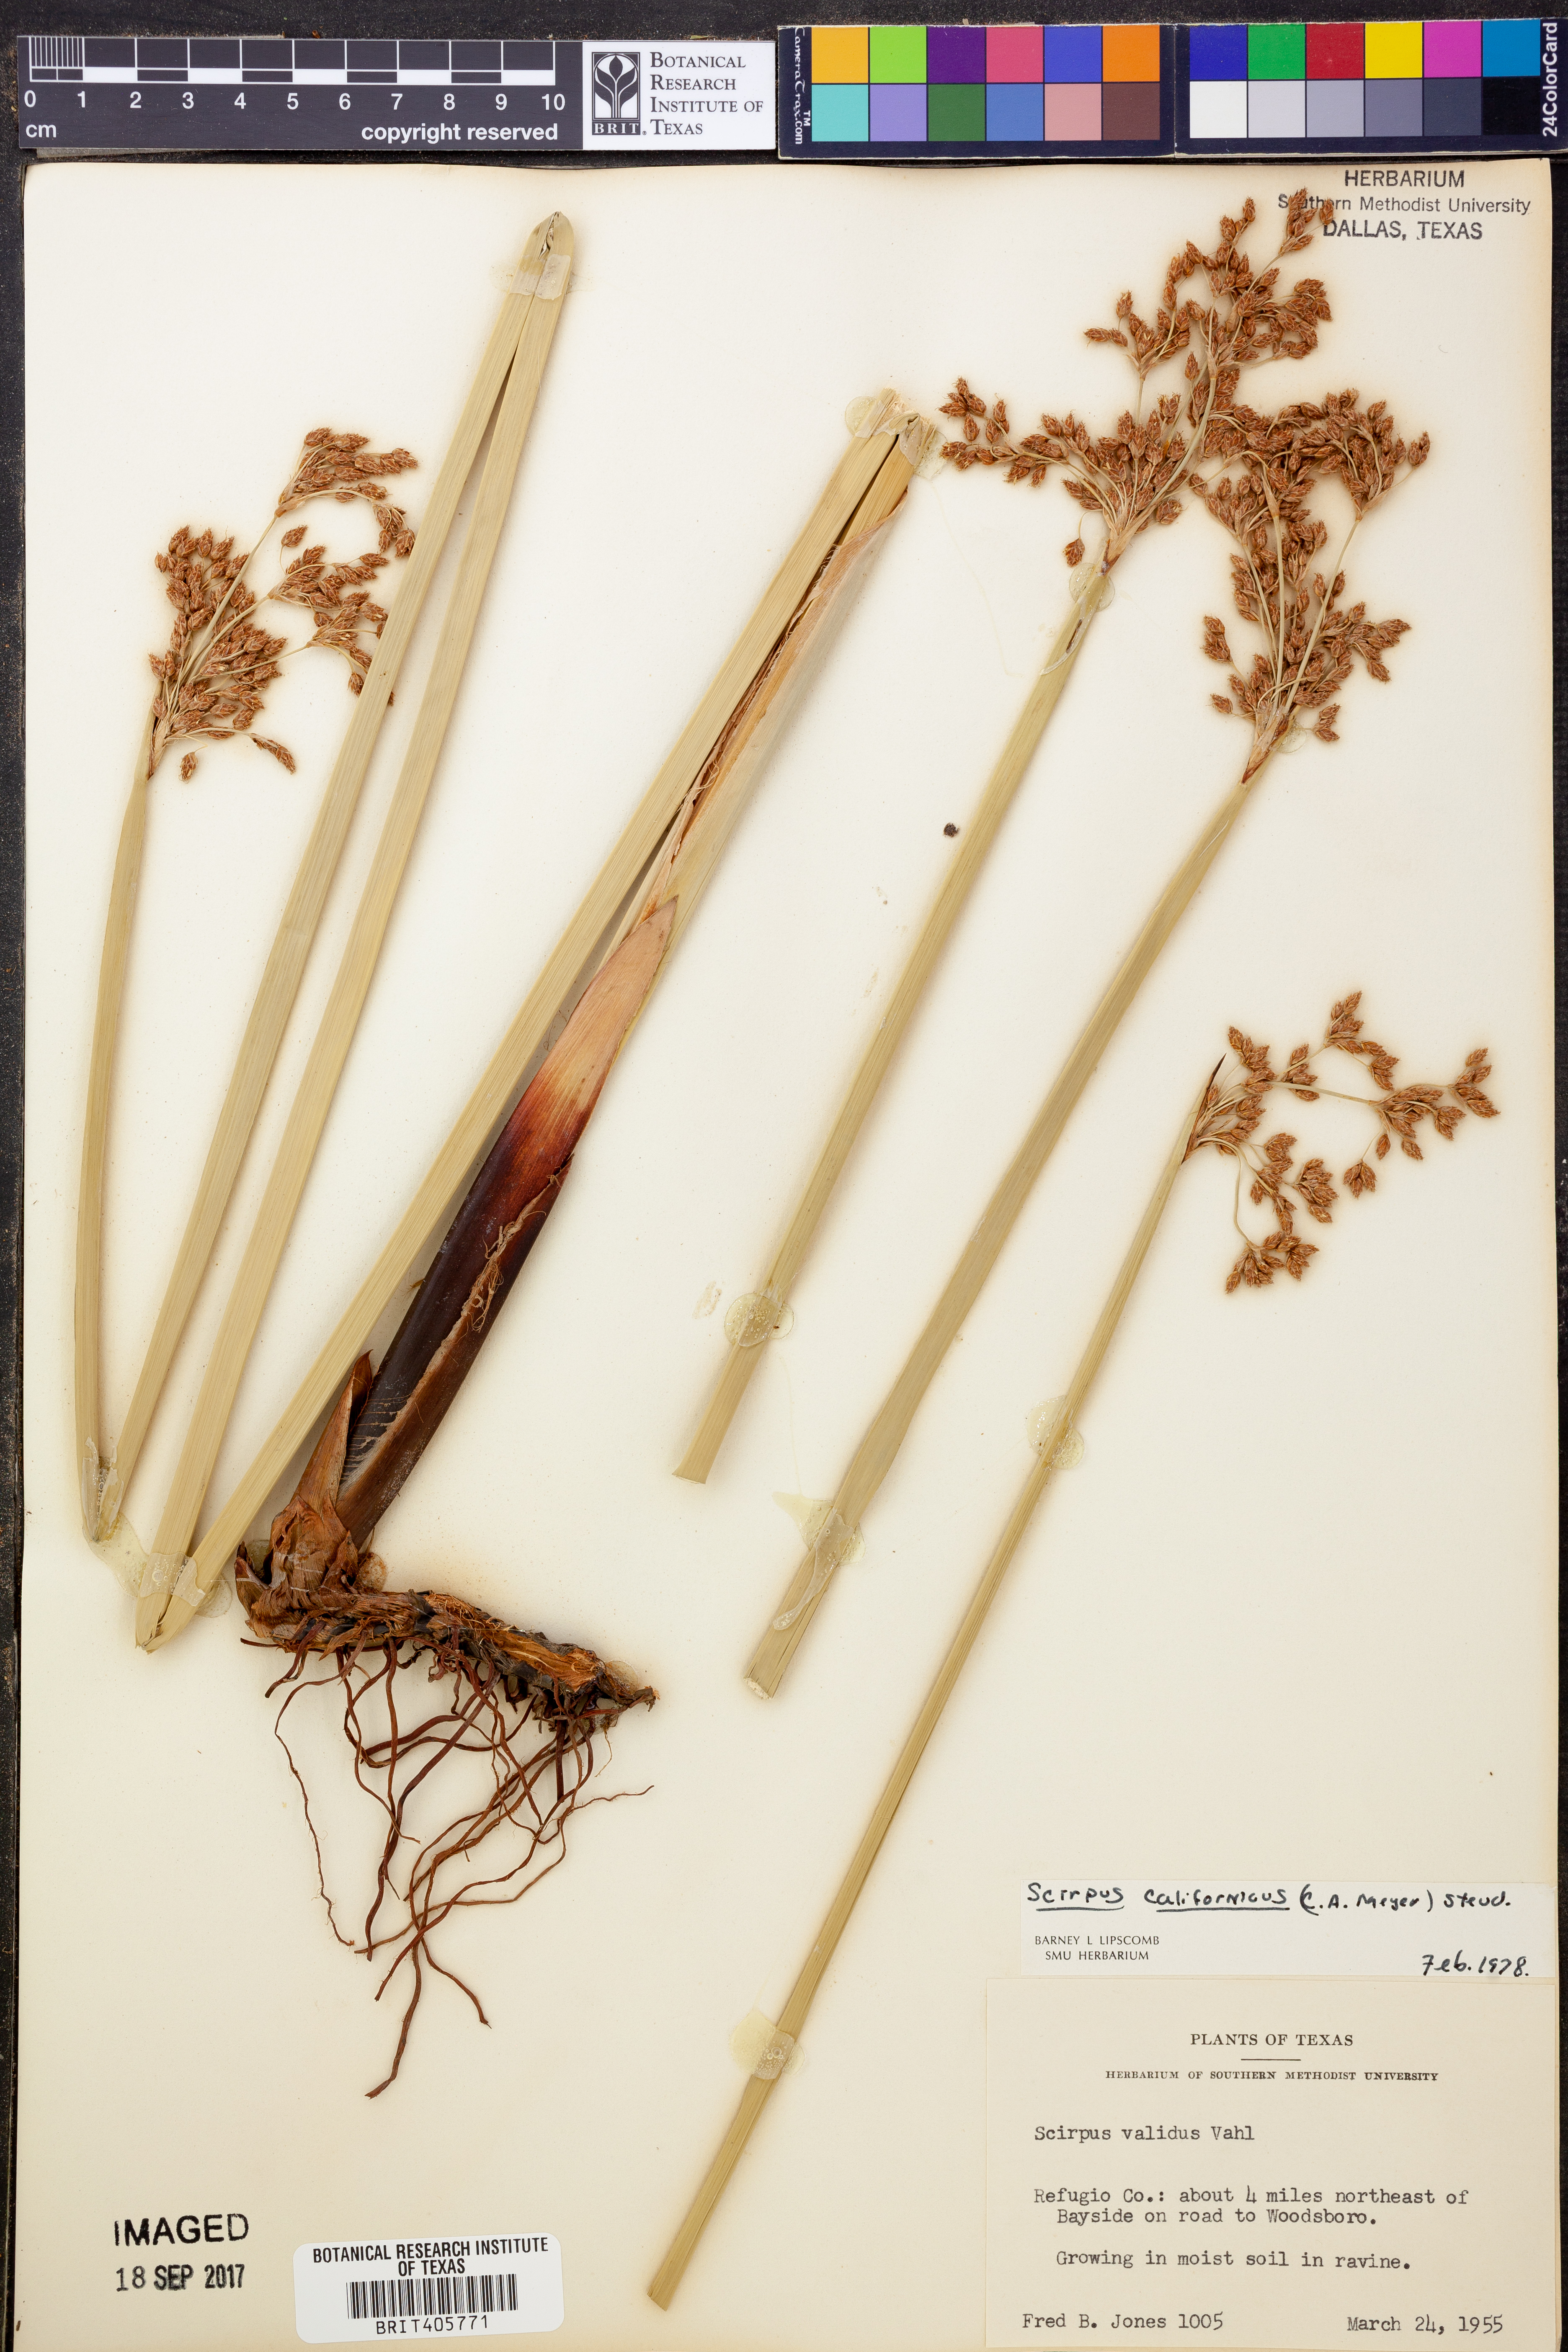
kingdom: Plantae
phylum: Tracheophyta
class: Liliopsida
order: Poales
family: Cyperaceae
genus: Schoenoplectus
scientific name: Schoenoplectus tabernaemontani
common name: Grey club-rush
